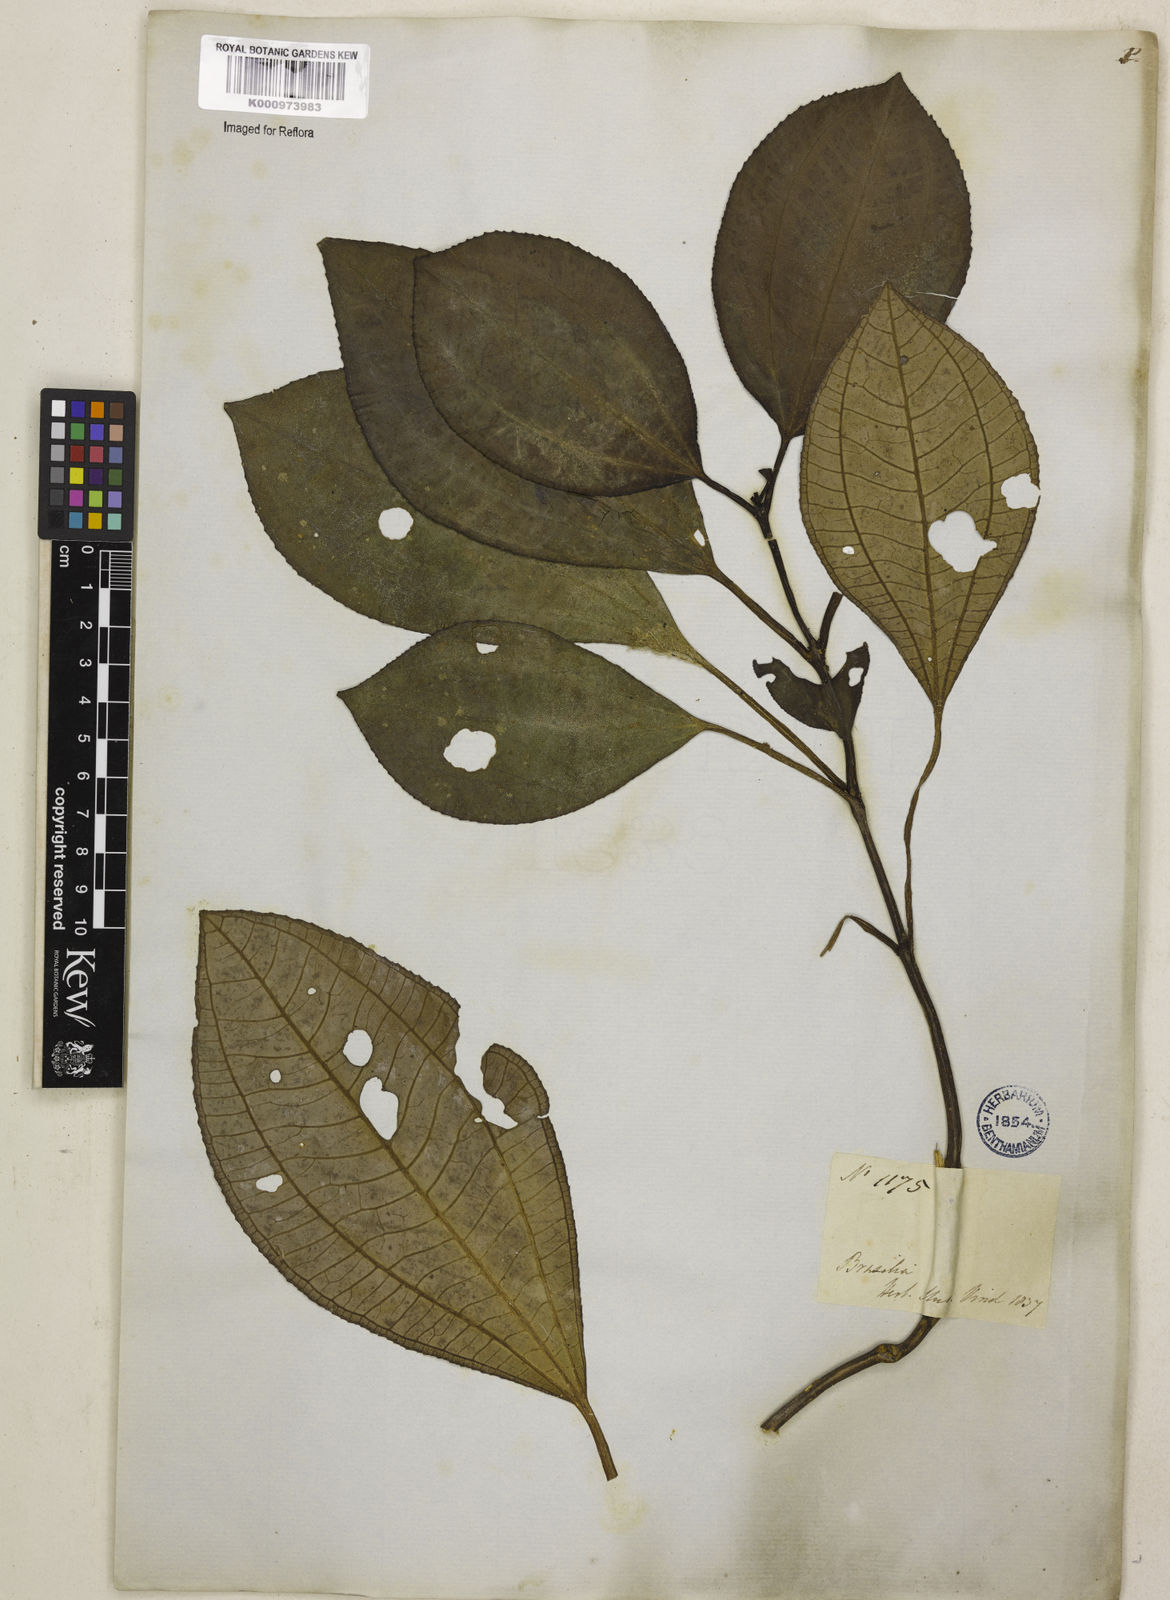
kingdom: Plantae
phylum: Tracheophyta
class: Magnoliopsida
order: Myrtales
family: Melastomataceae
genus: Bertolonia
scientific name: Bertolonia leuzeana
